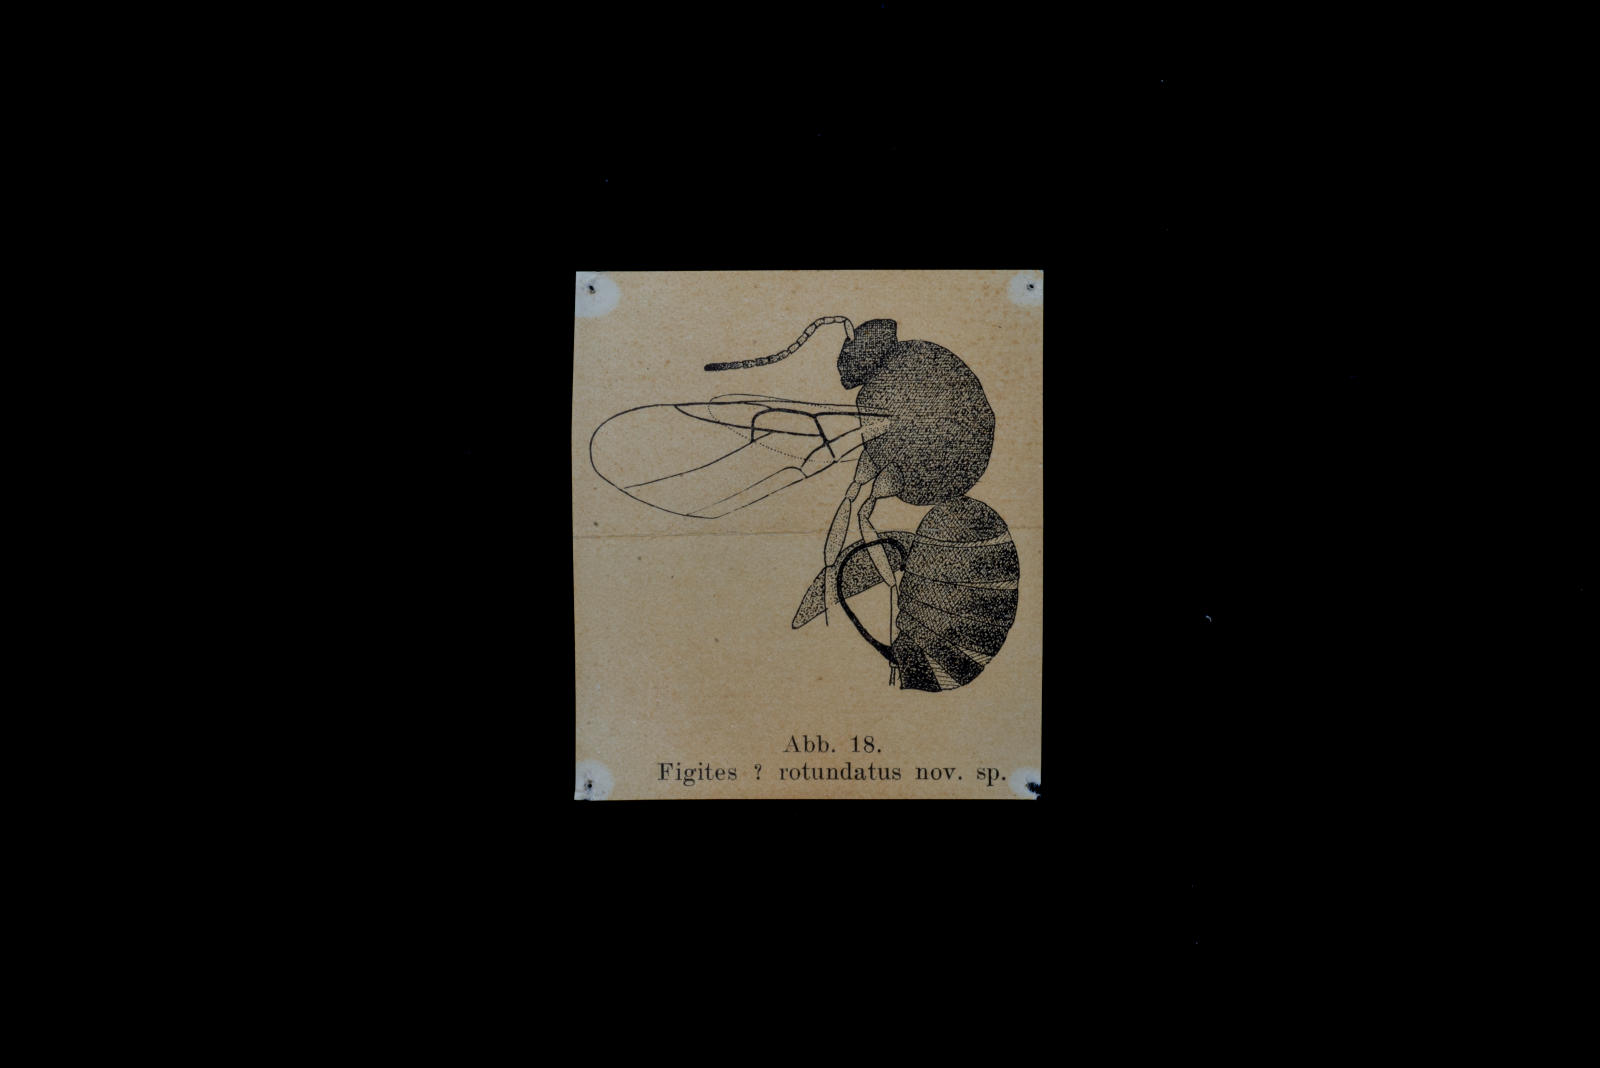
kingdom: Animalia
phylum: Arthropoda
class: Insecta
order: Hymenoptera
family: Cynipidae
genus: Aulacidea
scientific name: Aulacidea Figites rotundatus
